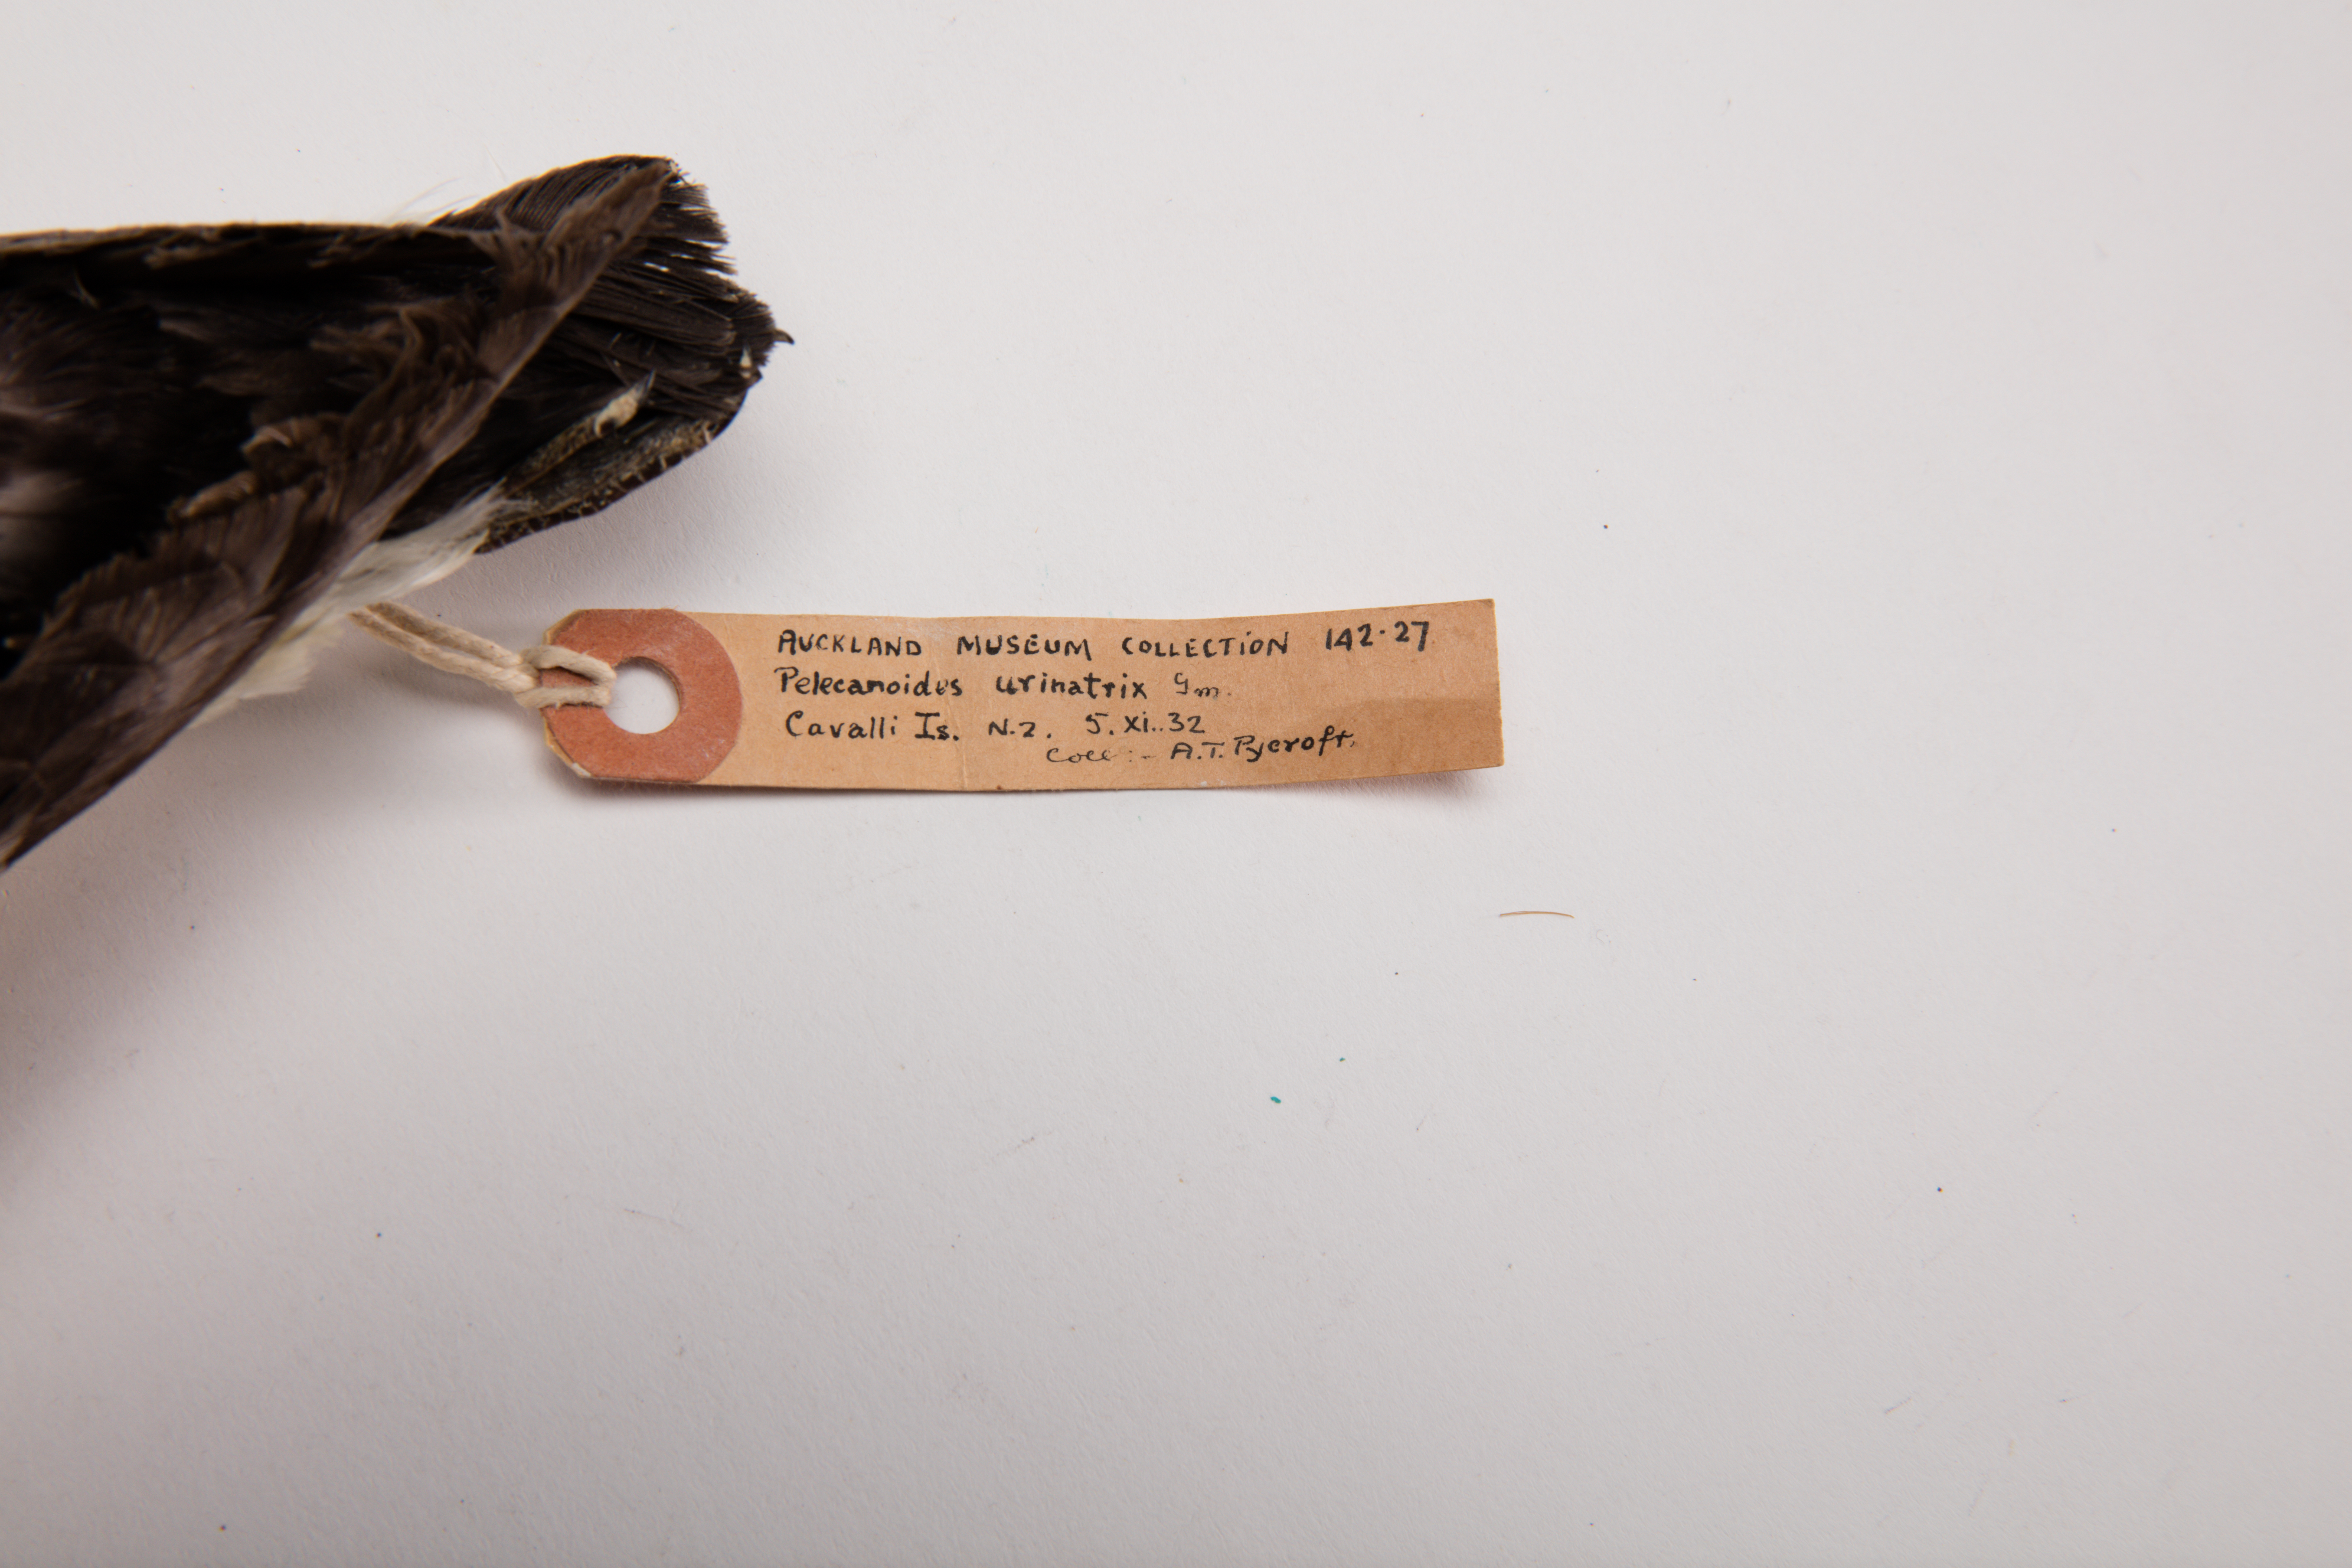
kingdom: Animalia
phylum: Chordata
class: Aves
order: Procellariiformes
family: Pelecanoididae
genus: Pelecanoides
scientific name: Pelecanoides urinatrix
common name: Common diving-petrel
